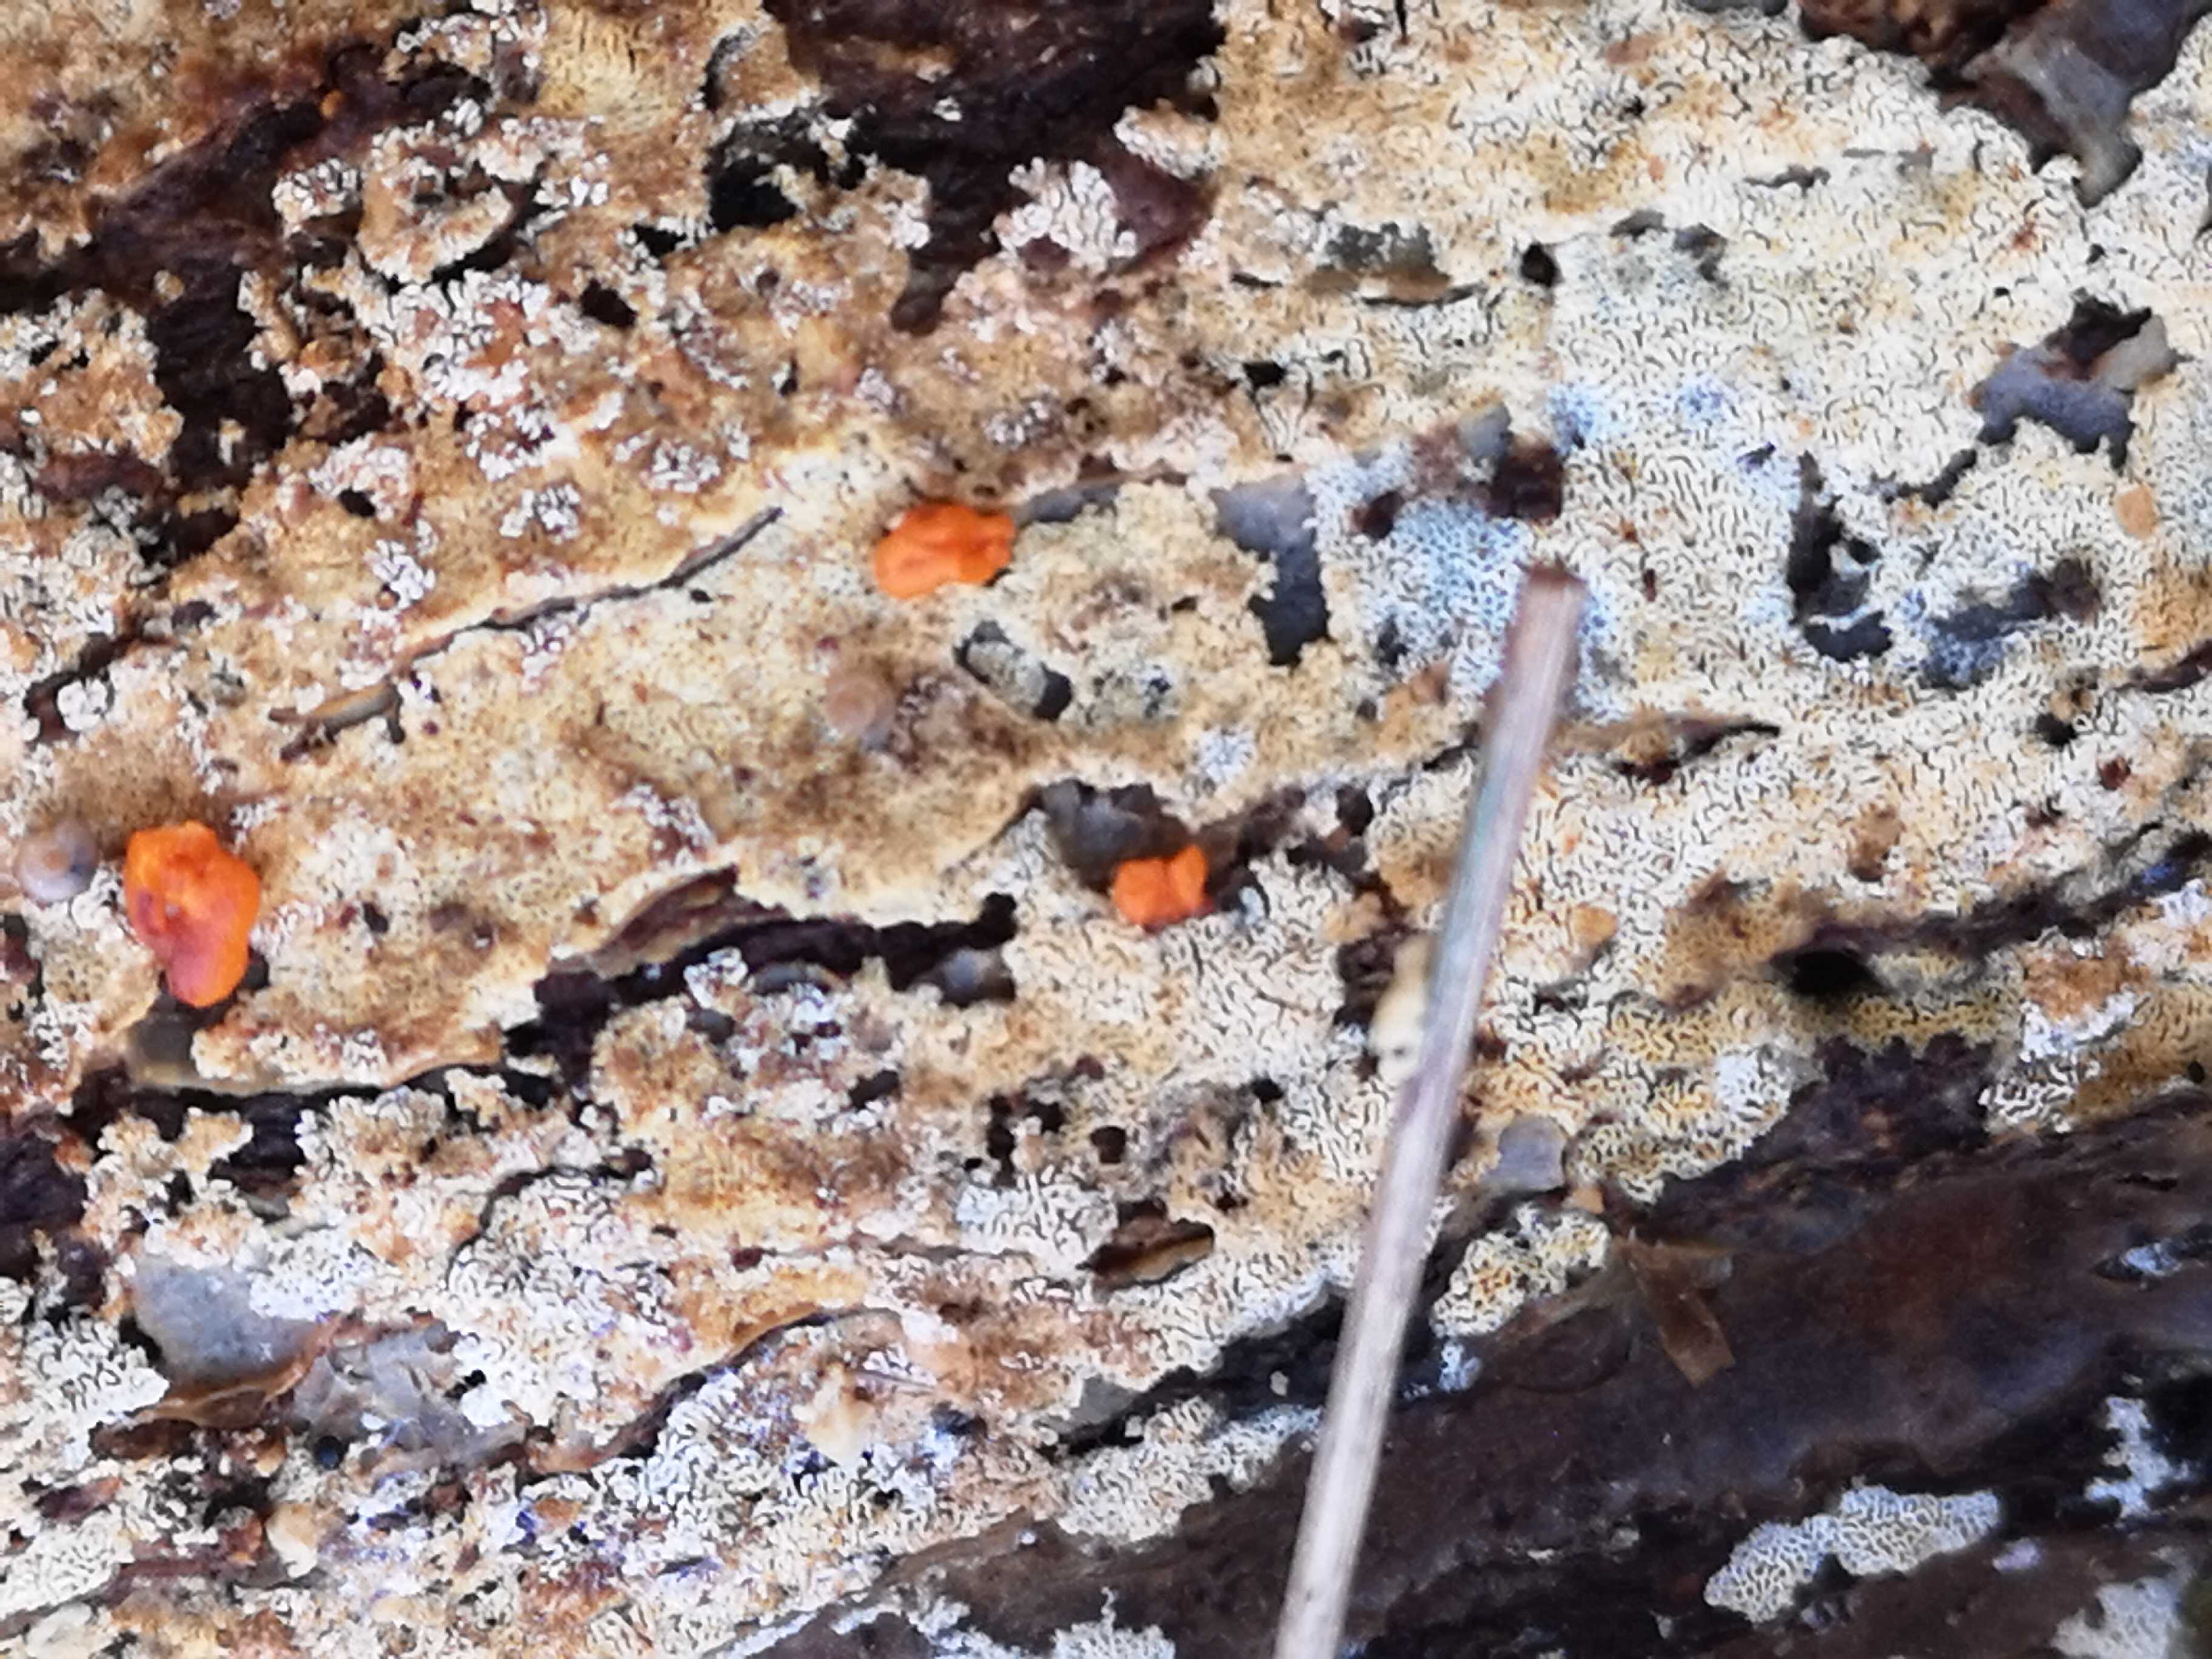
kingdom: Fungi
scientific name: Fungi
